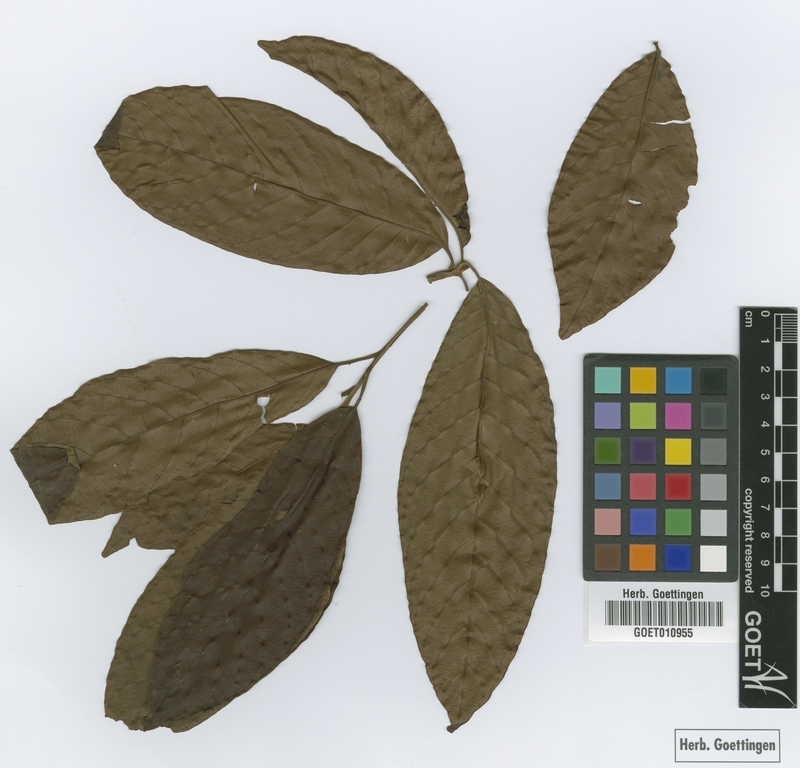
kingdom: Plantae
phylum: Tracheophyta
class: Magnoliopsida
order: Ericales
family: Sapotaceae
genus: Pradosia
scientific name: Pradosia grisebachii
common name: Grisebach pradosia
